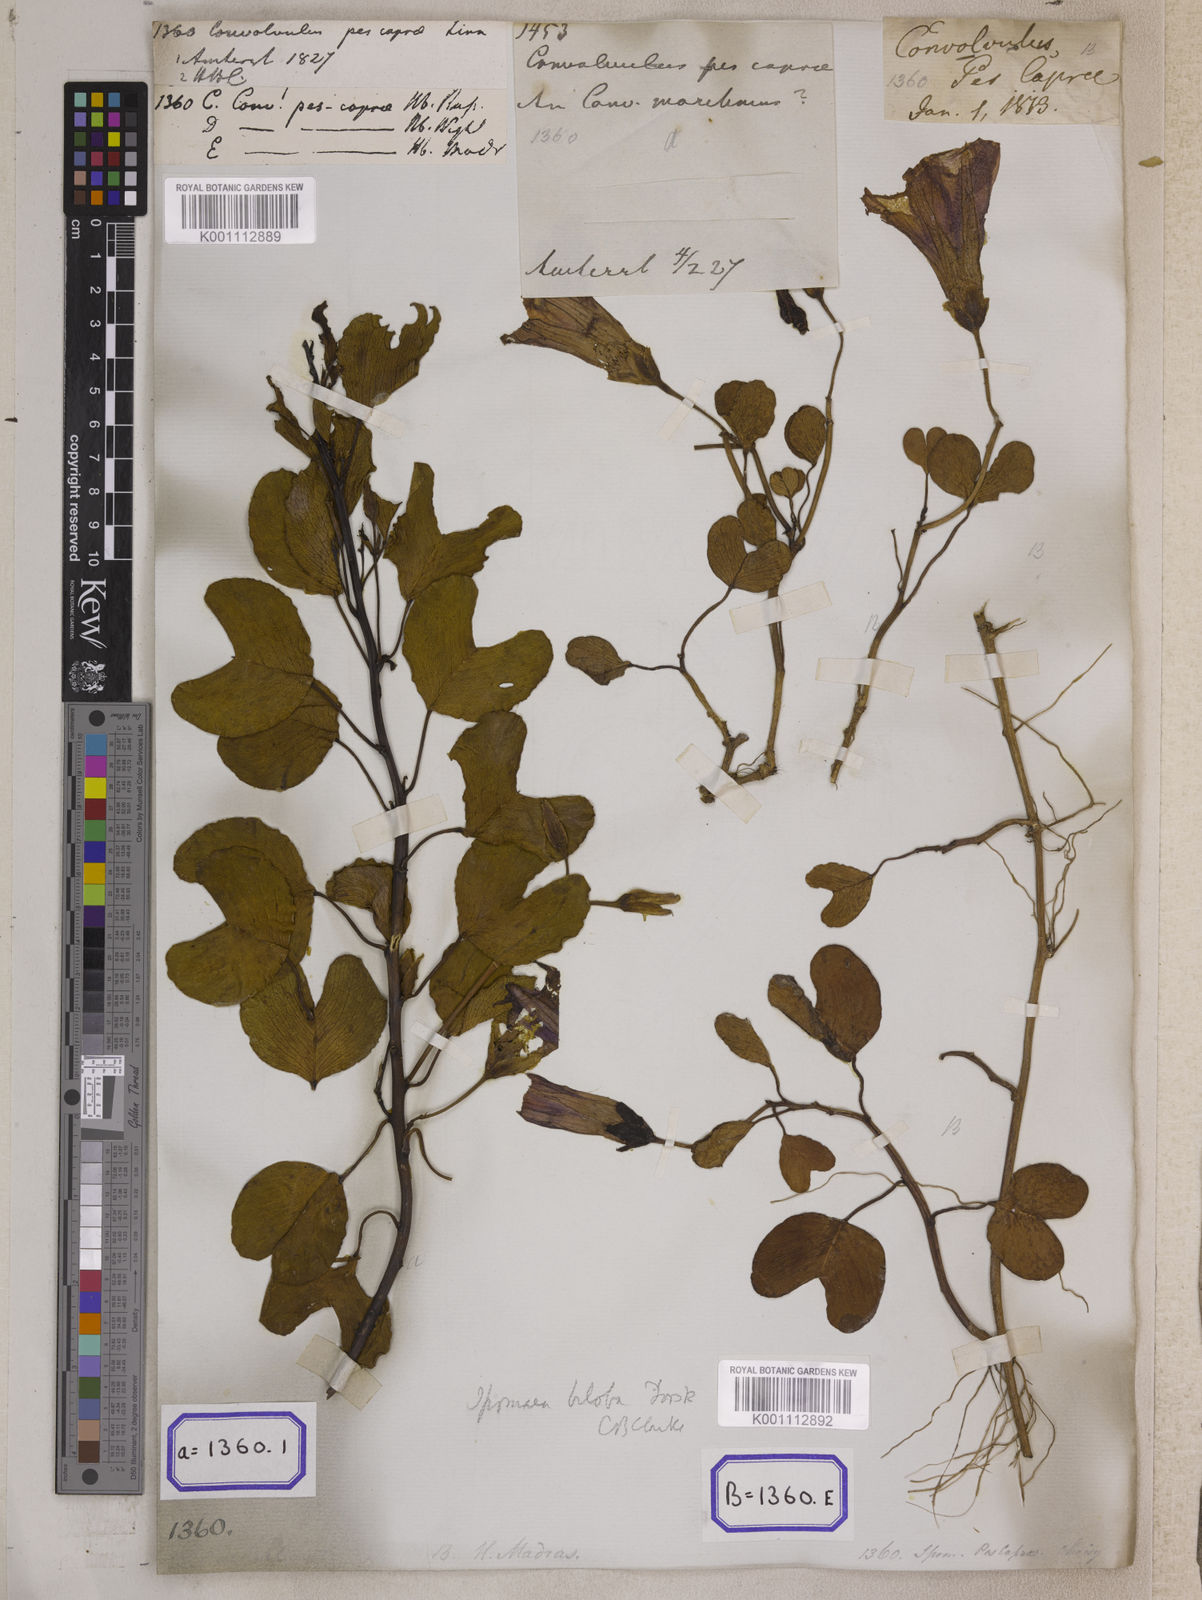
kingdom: Plantae
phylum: Tracheophyta
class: Magnoliopsida
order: Solanales
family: Convolvulaceae
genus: Ipomoea
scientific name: Ipomoea pes-caprae
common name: Beach morning glory
